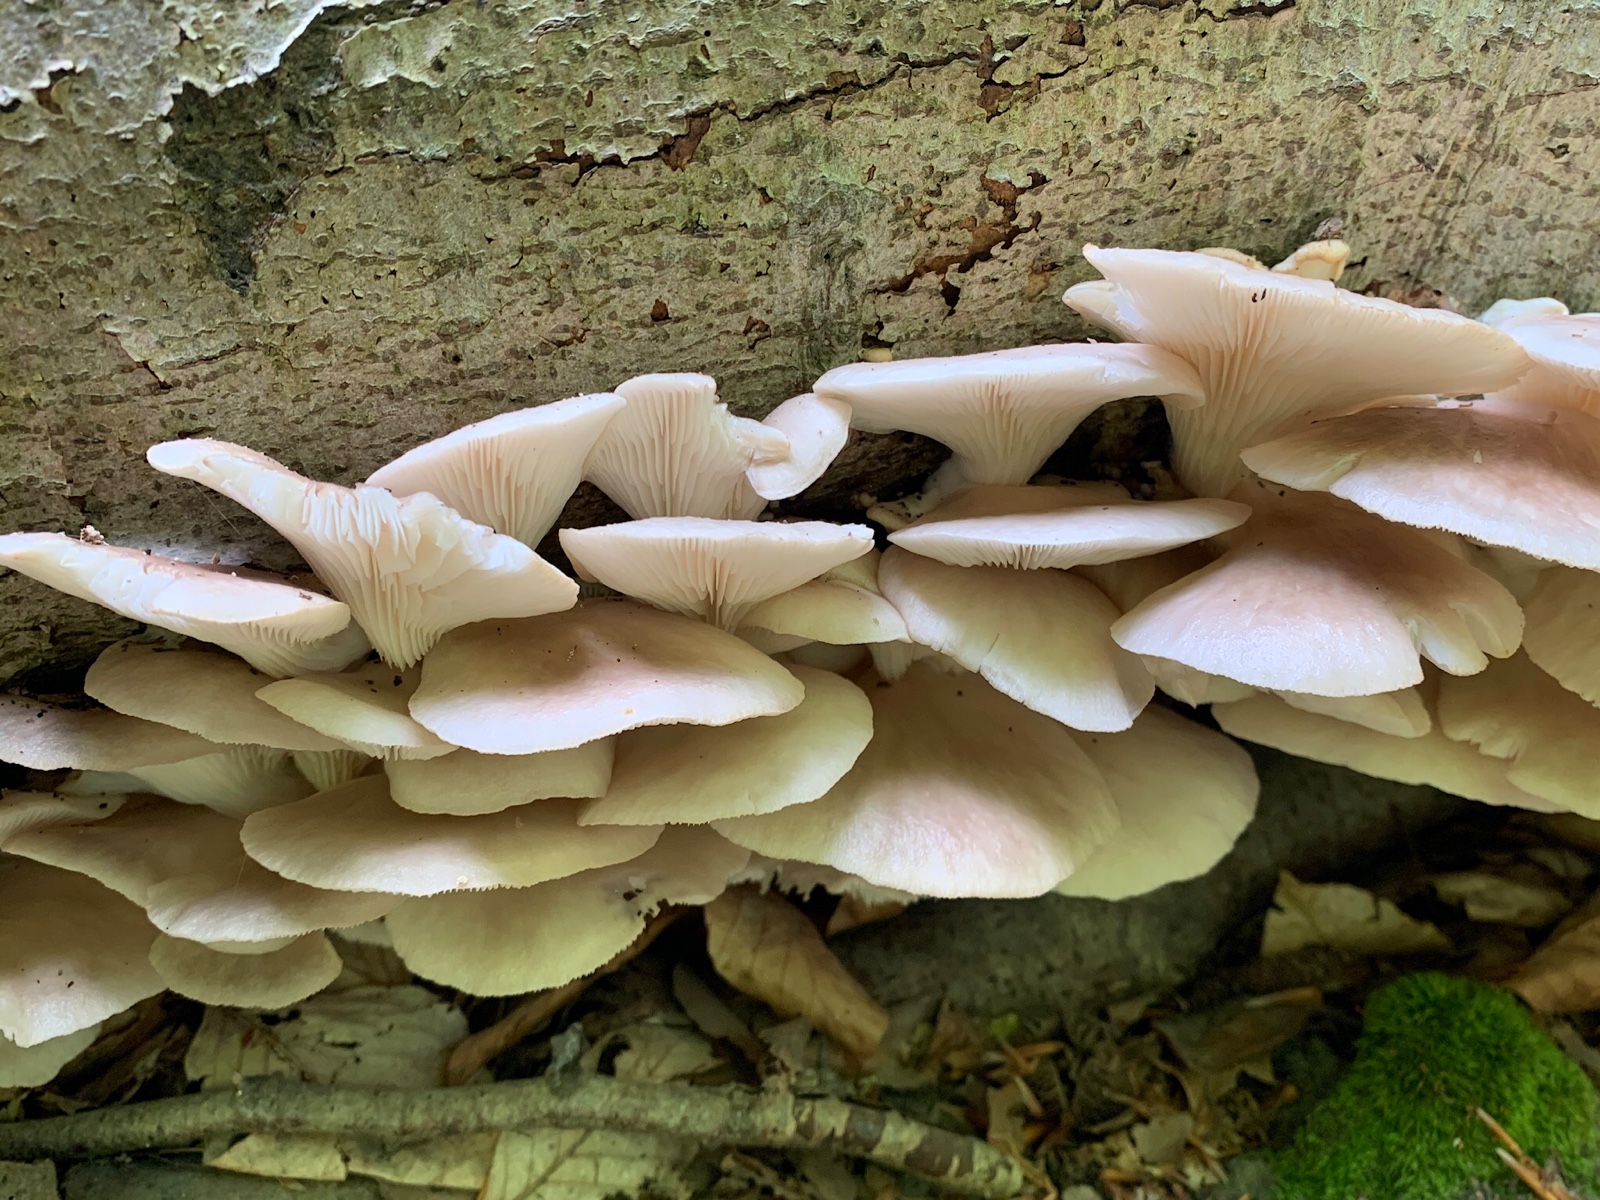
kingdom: Fungi
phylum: Basidiomycota
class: Agaricomycetes
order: Agaricales
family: Pleurotaceae
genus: Pleurotus
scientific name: Pleurotus pulmonarius
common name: sommer-østershat
